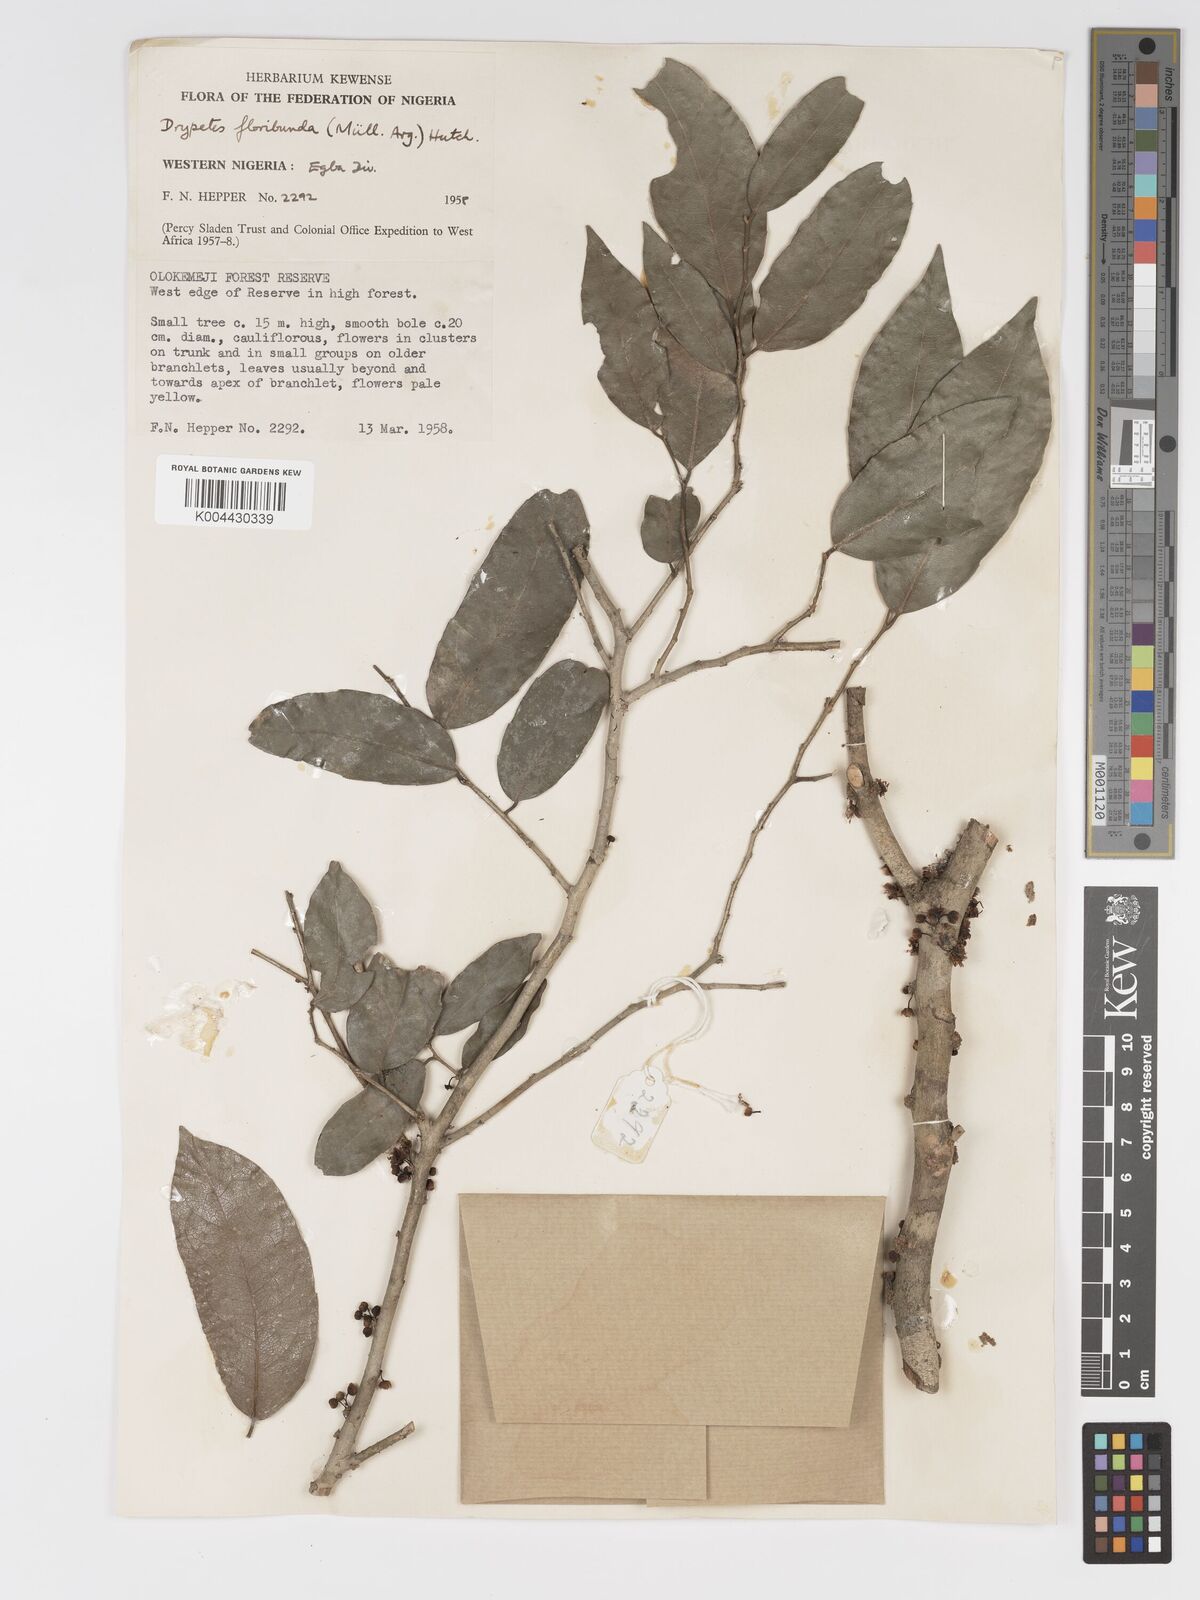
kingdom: Plantae
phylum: Tracheophyta
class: Magnoliopsida
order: Malpighiales
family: Putranjivaceae
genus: Drypetes
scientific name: Drypetes floribunda
